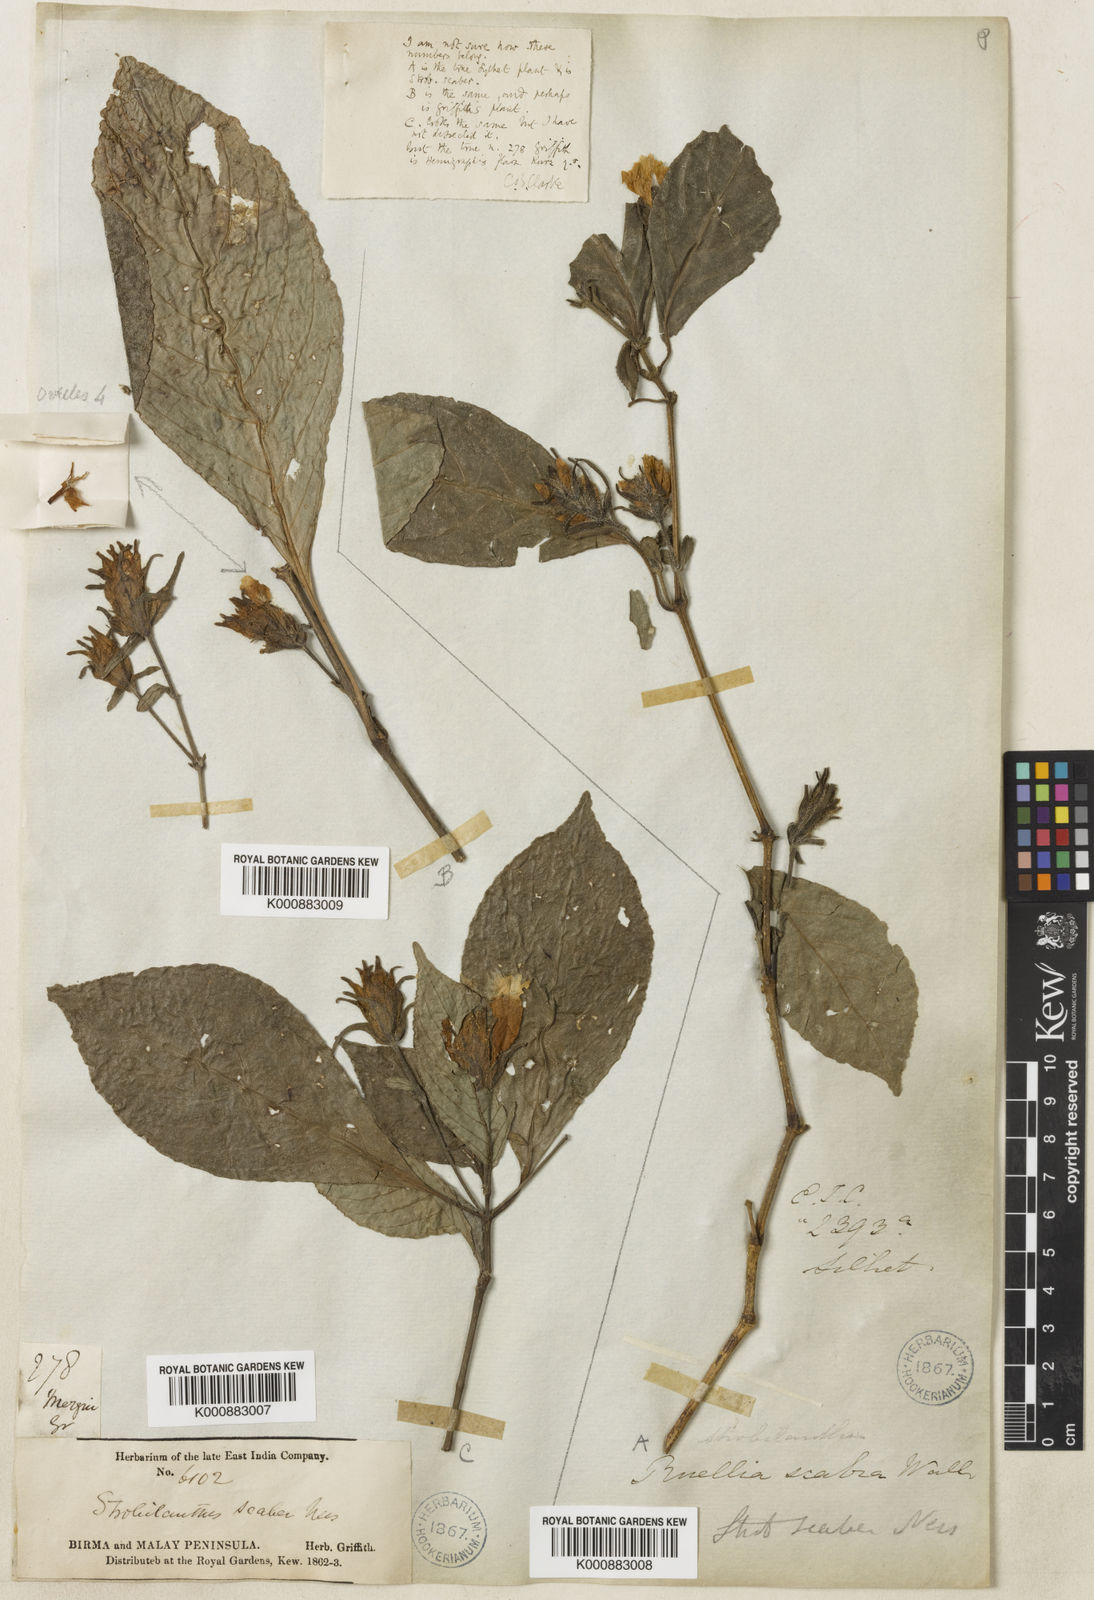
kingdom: Plantae
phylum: Tracheophyta
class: Magnoliopsida
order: Lamiales
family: Acanthaceae
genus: Strobilanthes
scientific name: Strobilanthes
